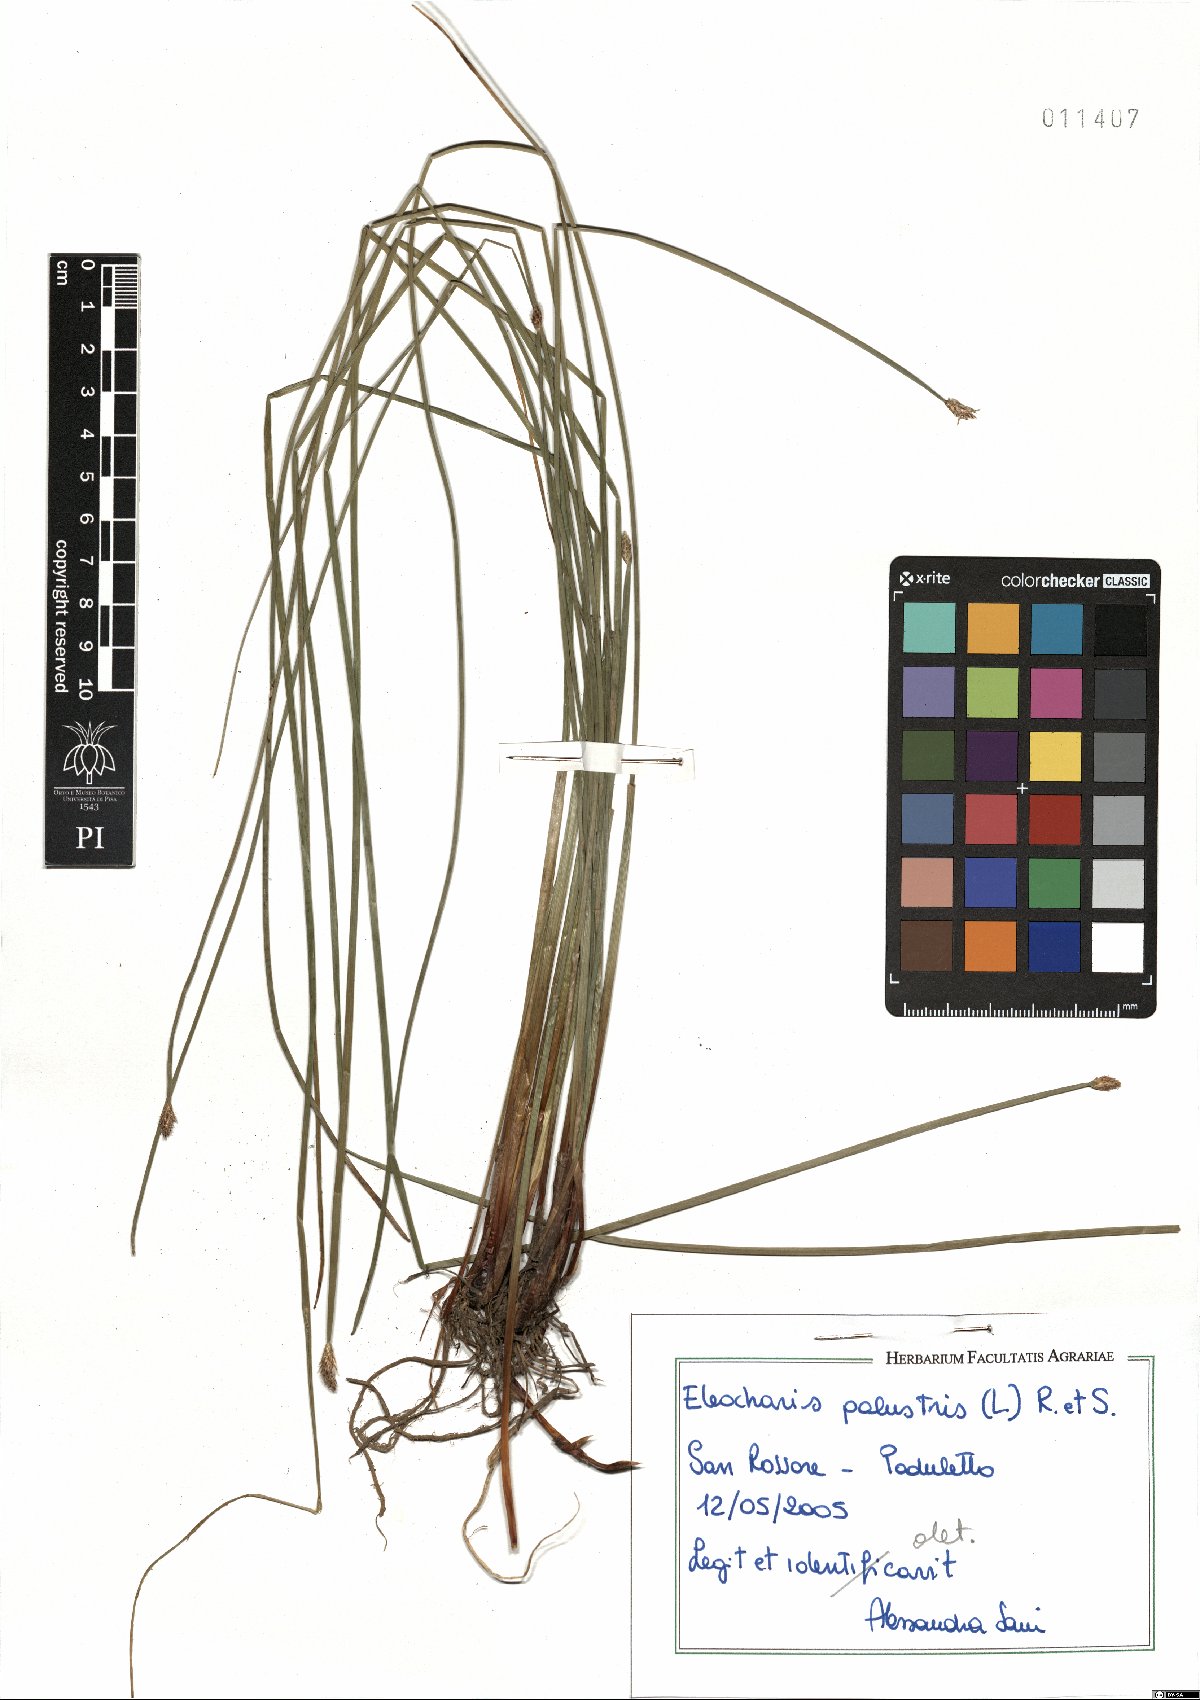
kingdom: Plantae
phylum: Tracheophyta
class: Liliopsida
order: Poales
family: Cyperaceae
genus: Eleocharis
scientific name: Eleocharis palustris
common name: Common spike-rush
